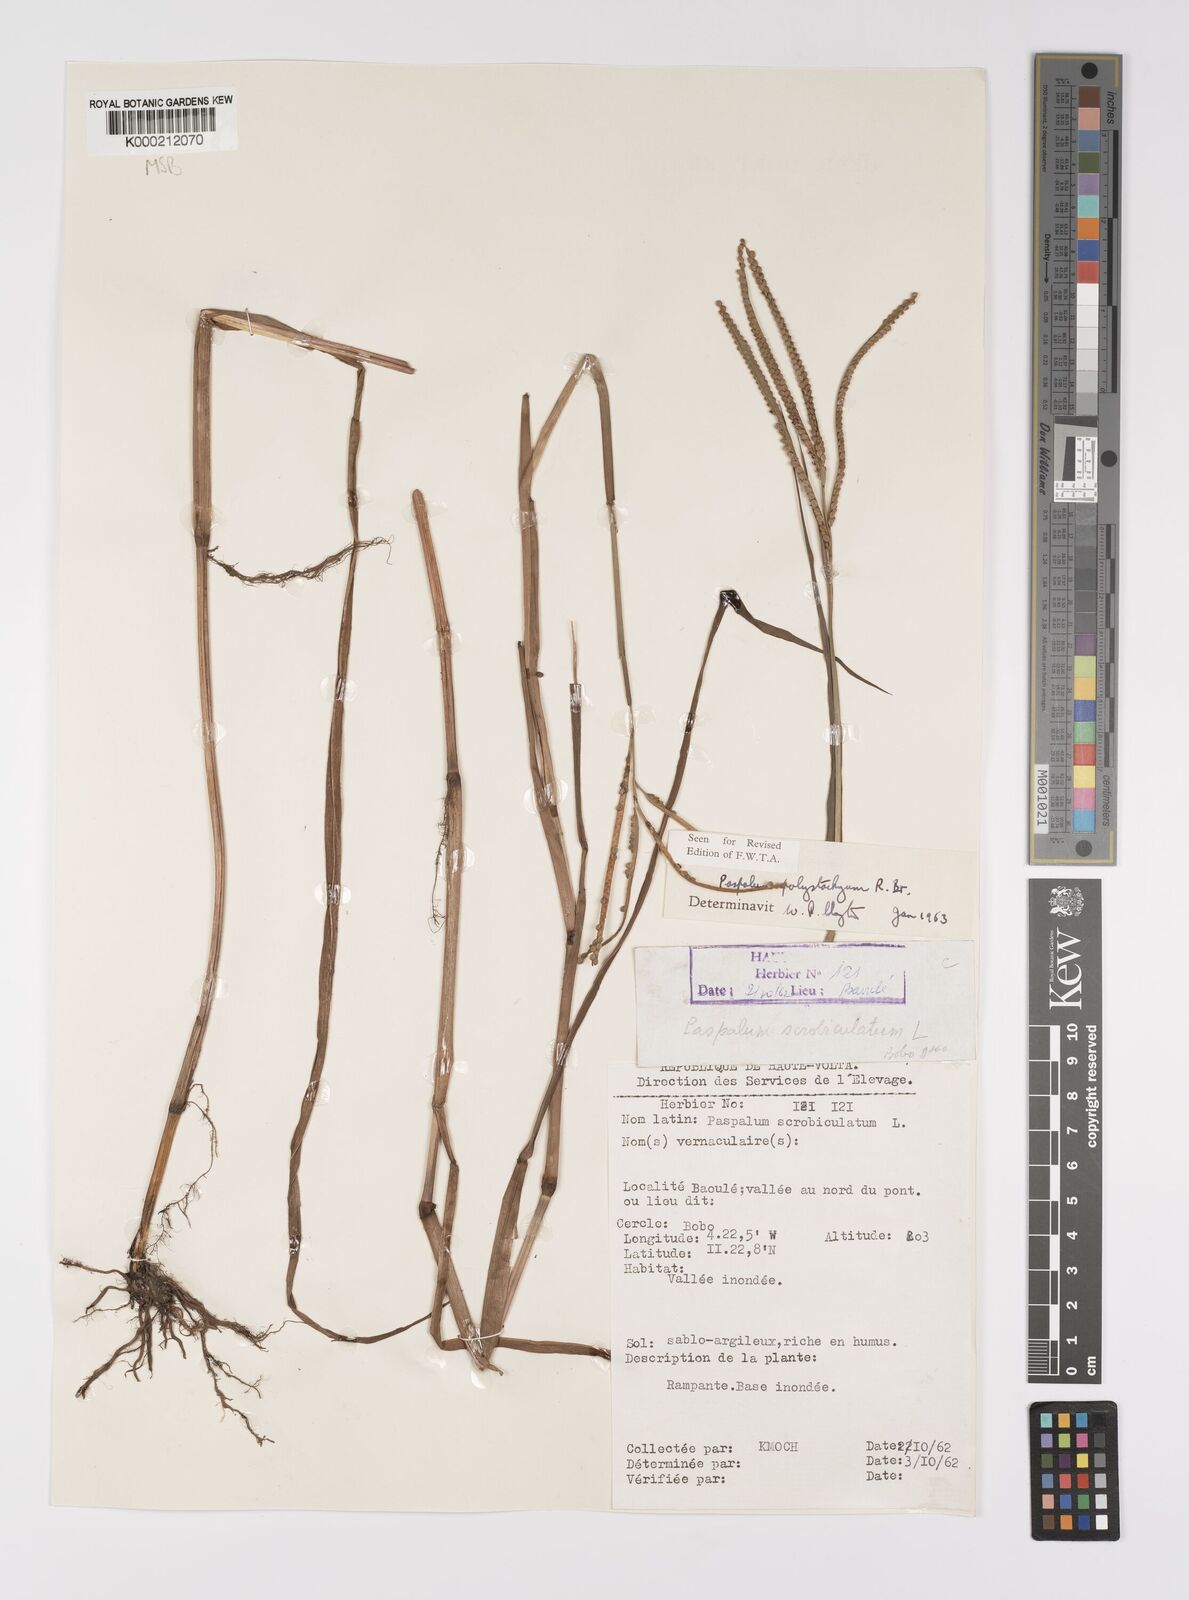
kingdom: Plantae
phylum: Tracheophyta
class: Liliopsida
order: Poales
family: Poaceae
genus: Paspalum
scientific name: Paspalum scrobiculatum
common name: Kodo millet
